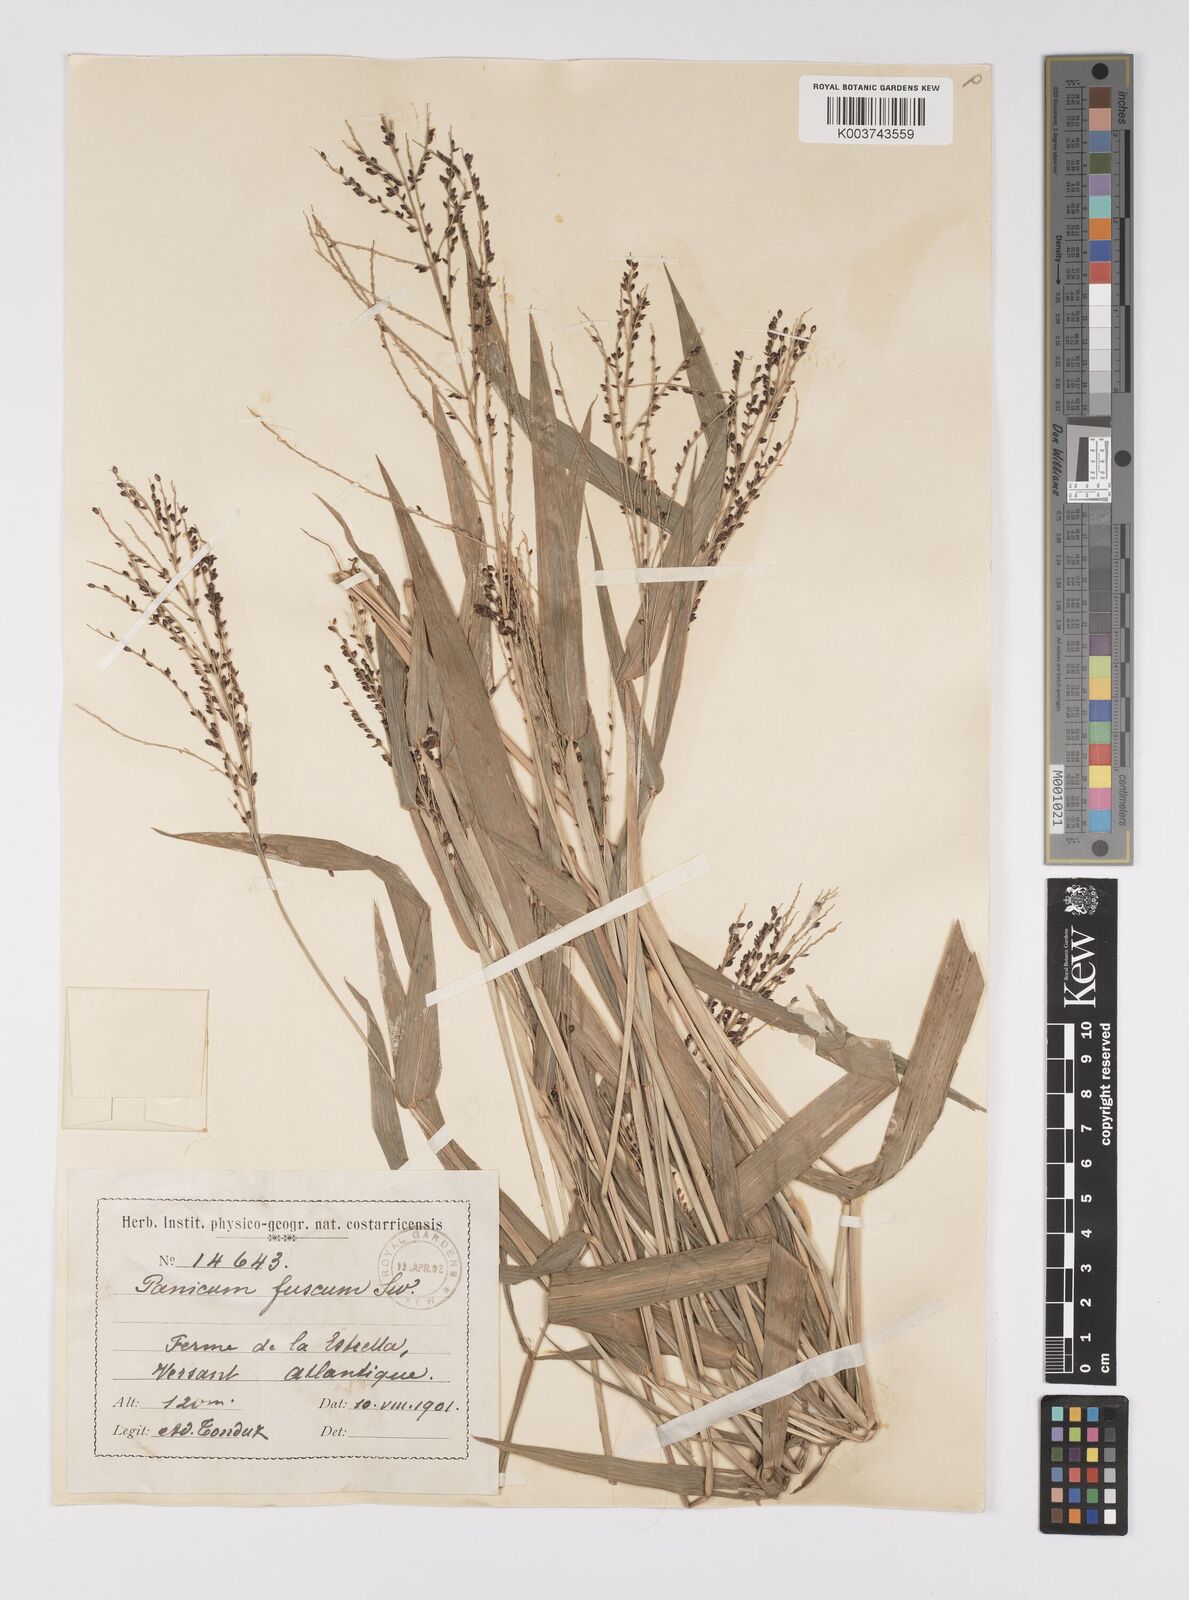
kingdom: Plantae
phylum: Tracheophyta
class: Liliopsida
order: Poales
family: Poaceae
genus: Urochloa
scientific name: Urochloa fusca
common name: Browntop signal grass
